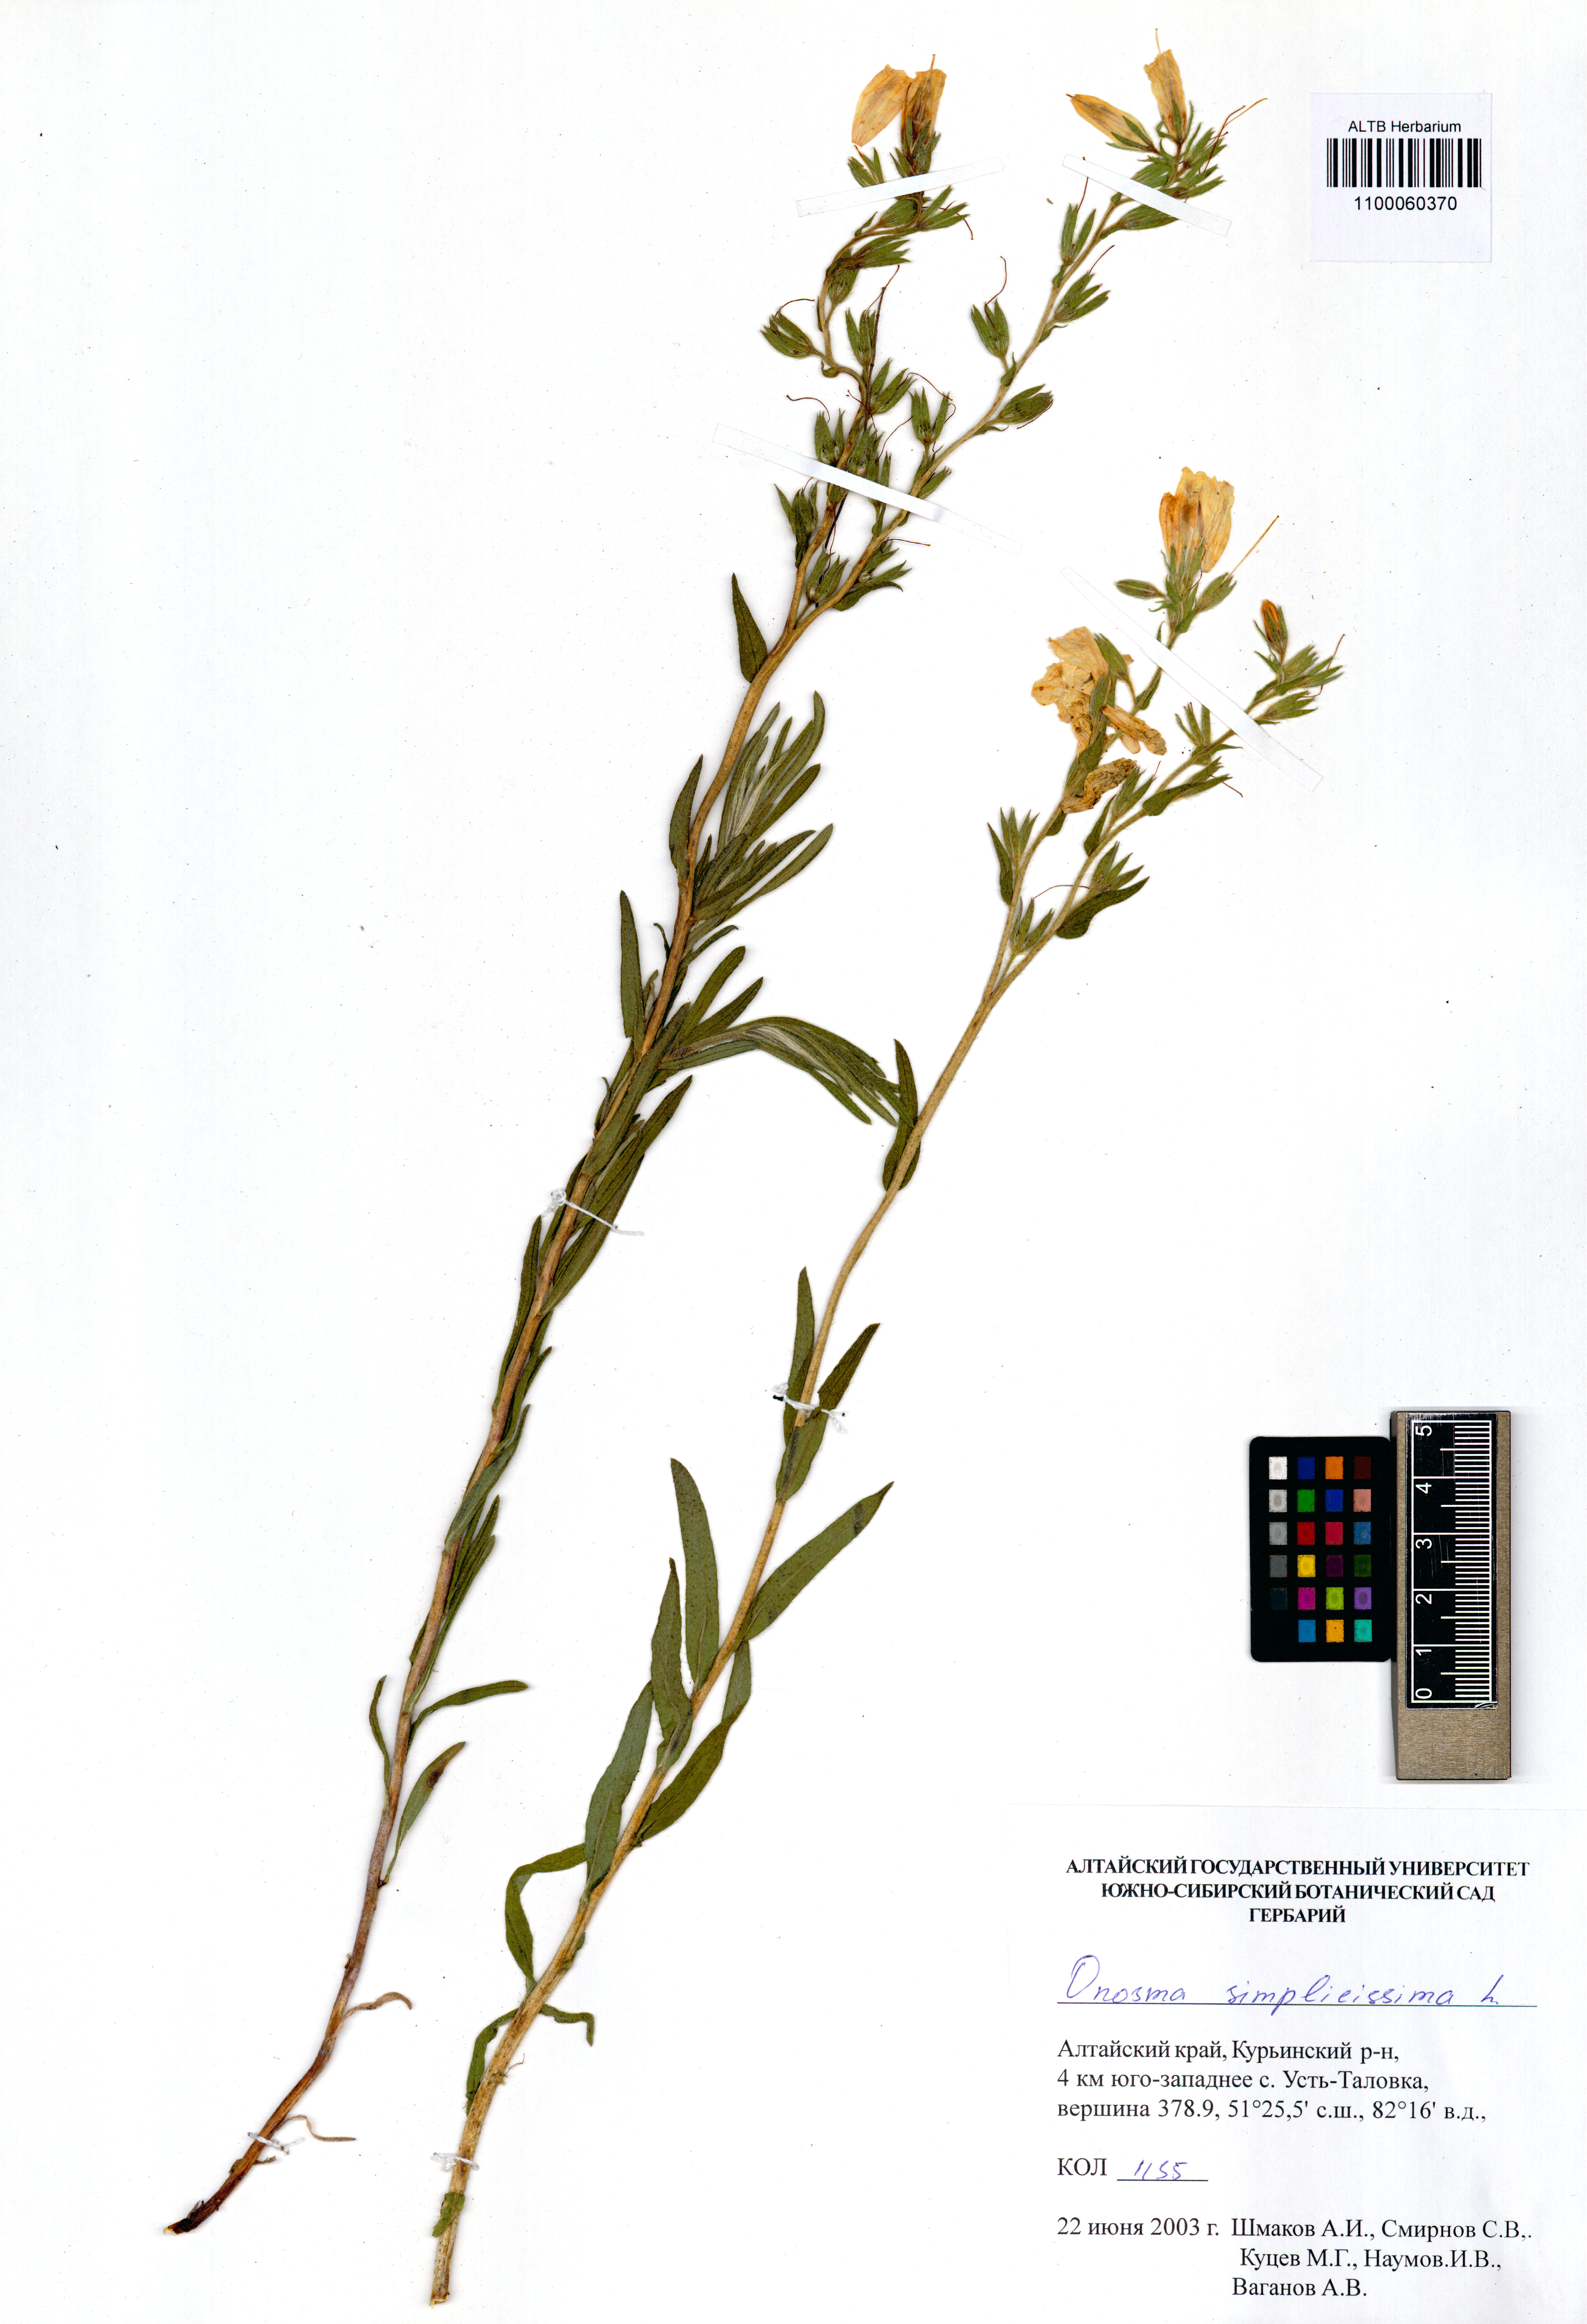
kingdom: Plantae
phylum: Tracheophyta
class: Magnoliopsida
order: Boraginales
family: Boraginaceae
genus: Onosma
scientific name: Onosma simplicissima
